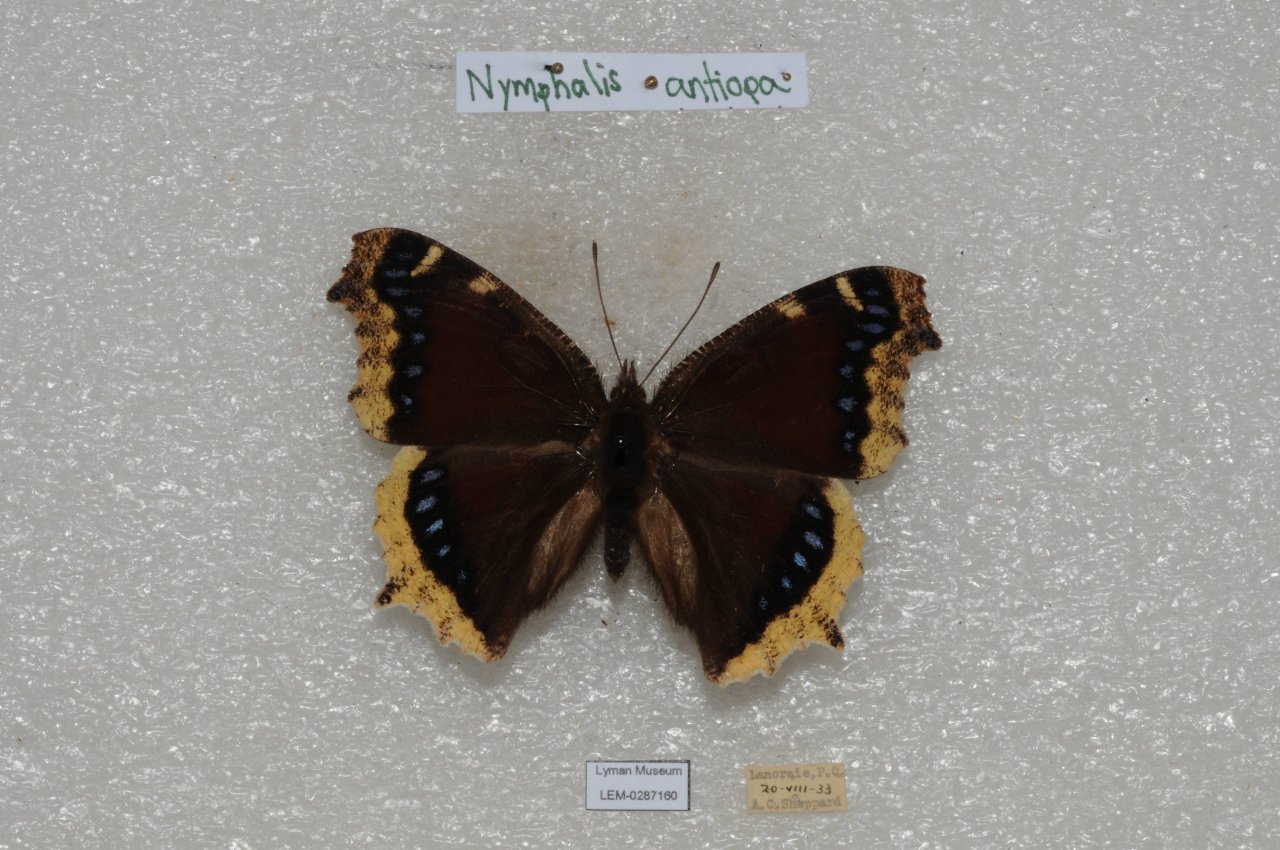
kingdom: Animalia
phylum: Arthropoda
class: Insecta
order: Lepidoptera
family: Nymphalidae
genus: Nymphalis
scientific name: Nymphalis antiopa
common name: Mourning Cloak
